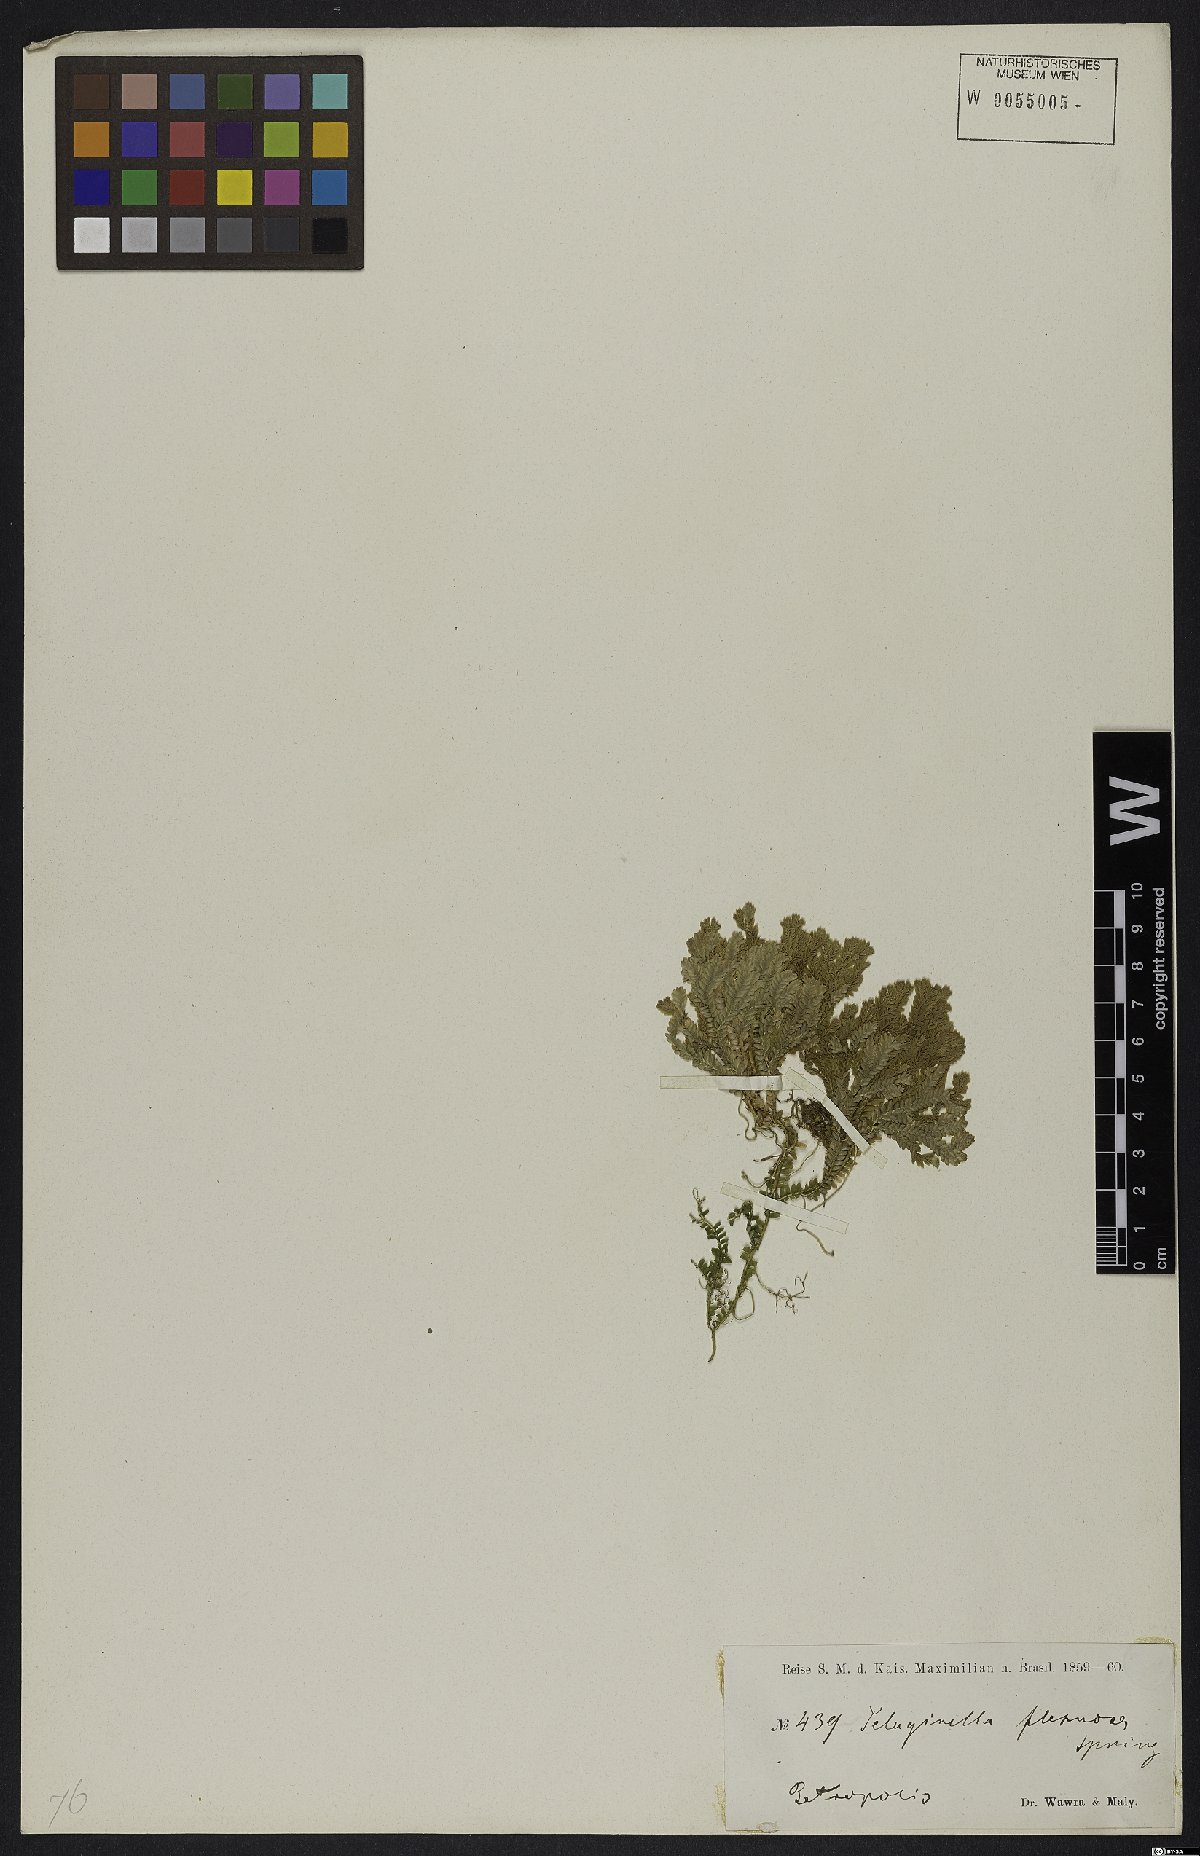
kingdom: Plantae
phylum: Tracheophyta
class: Lycopodiopsida
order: Selaginellales
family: Selaginellaceae
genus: Selaginella
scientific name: Selaginella flexuosa
